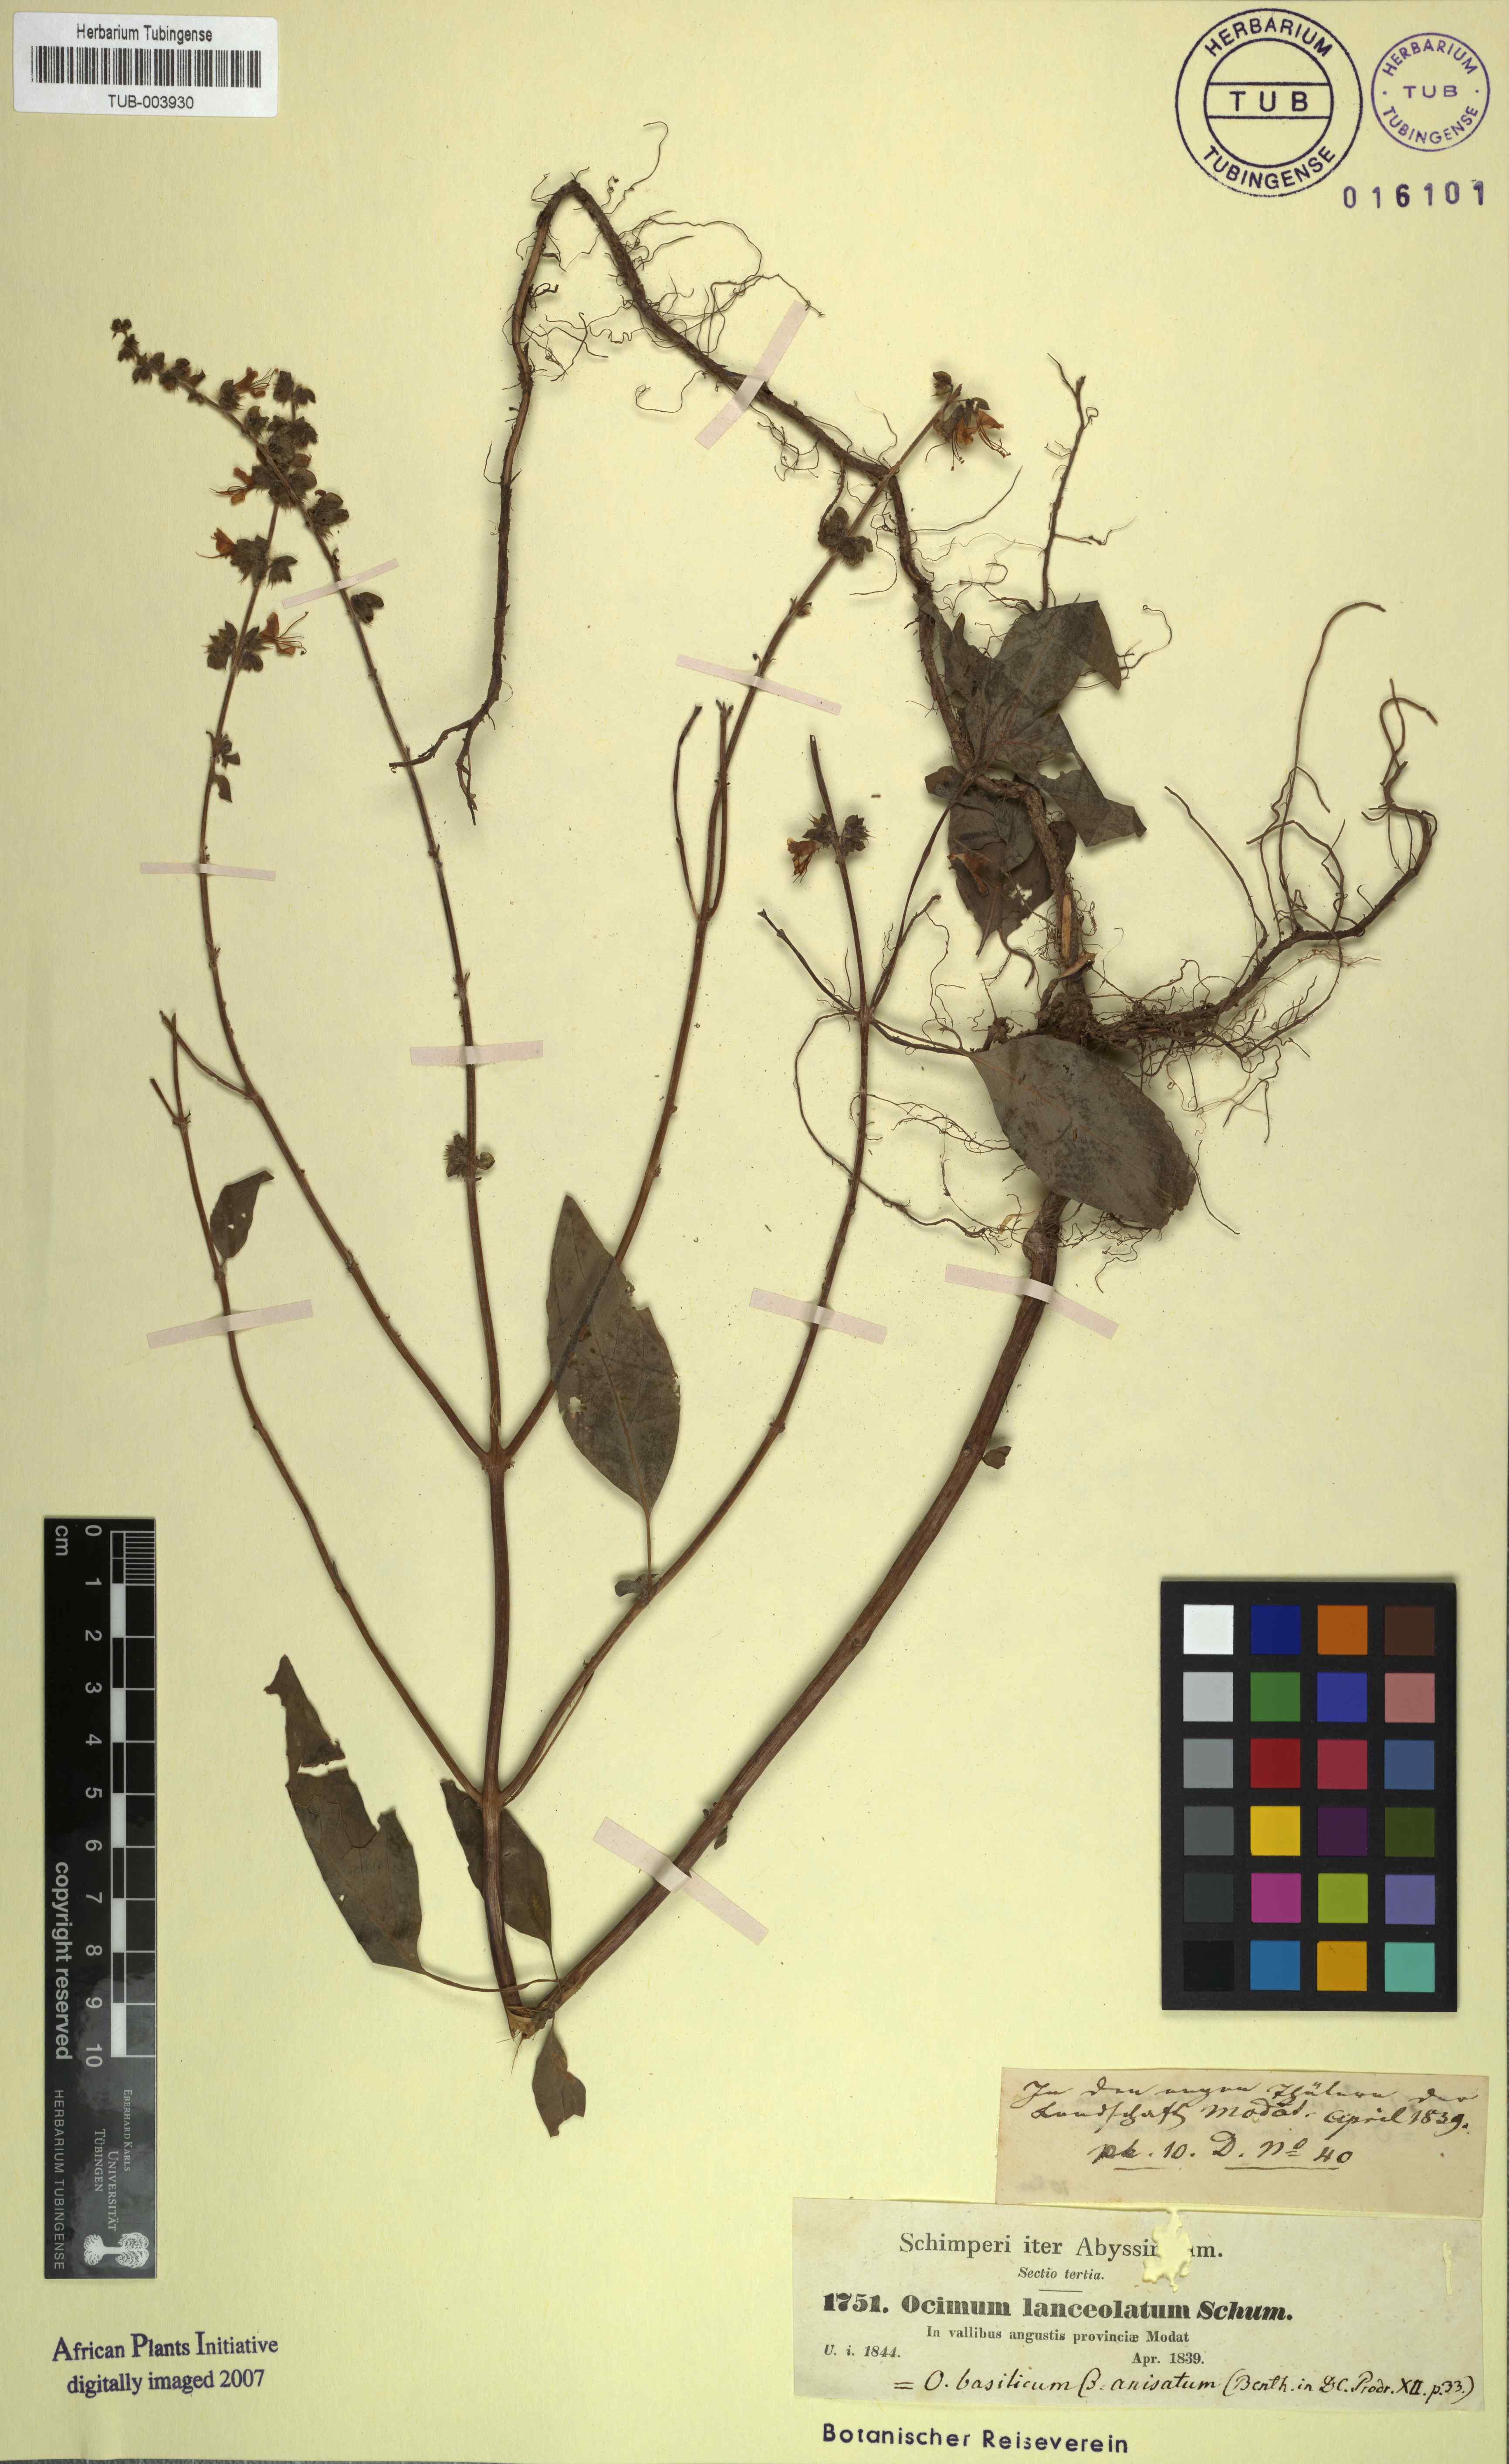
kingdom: Plantae
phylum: Tracheophyta
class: Magnoliopsida
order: Lamiales
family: Lamiaceae
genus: Ocimum
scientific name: Ocimum basilicum
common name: Sweet basil
